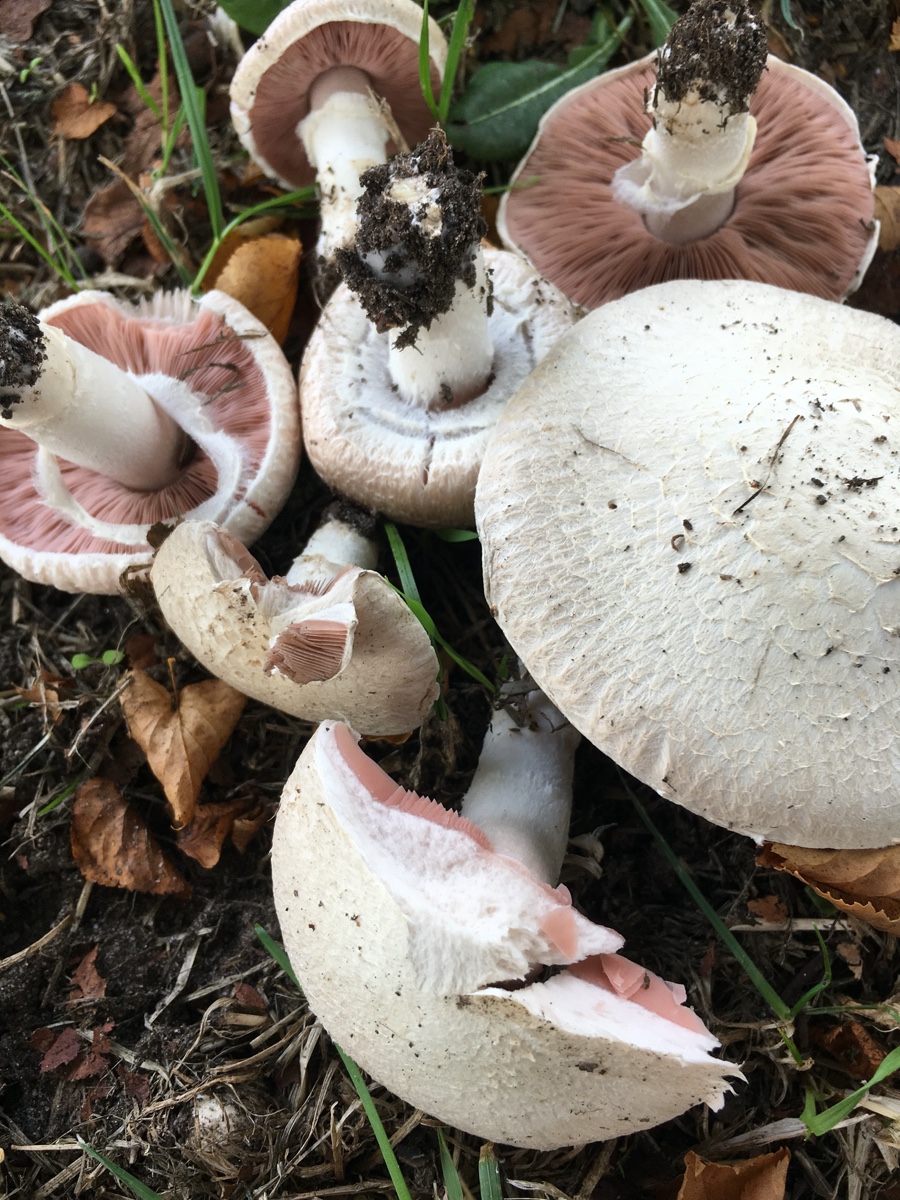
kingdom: Fungi
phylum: Basidiomycota
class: Agaricomycetes
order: Agaricales
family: Agaricaceae
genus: Agaricus
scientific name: Agaricus
